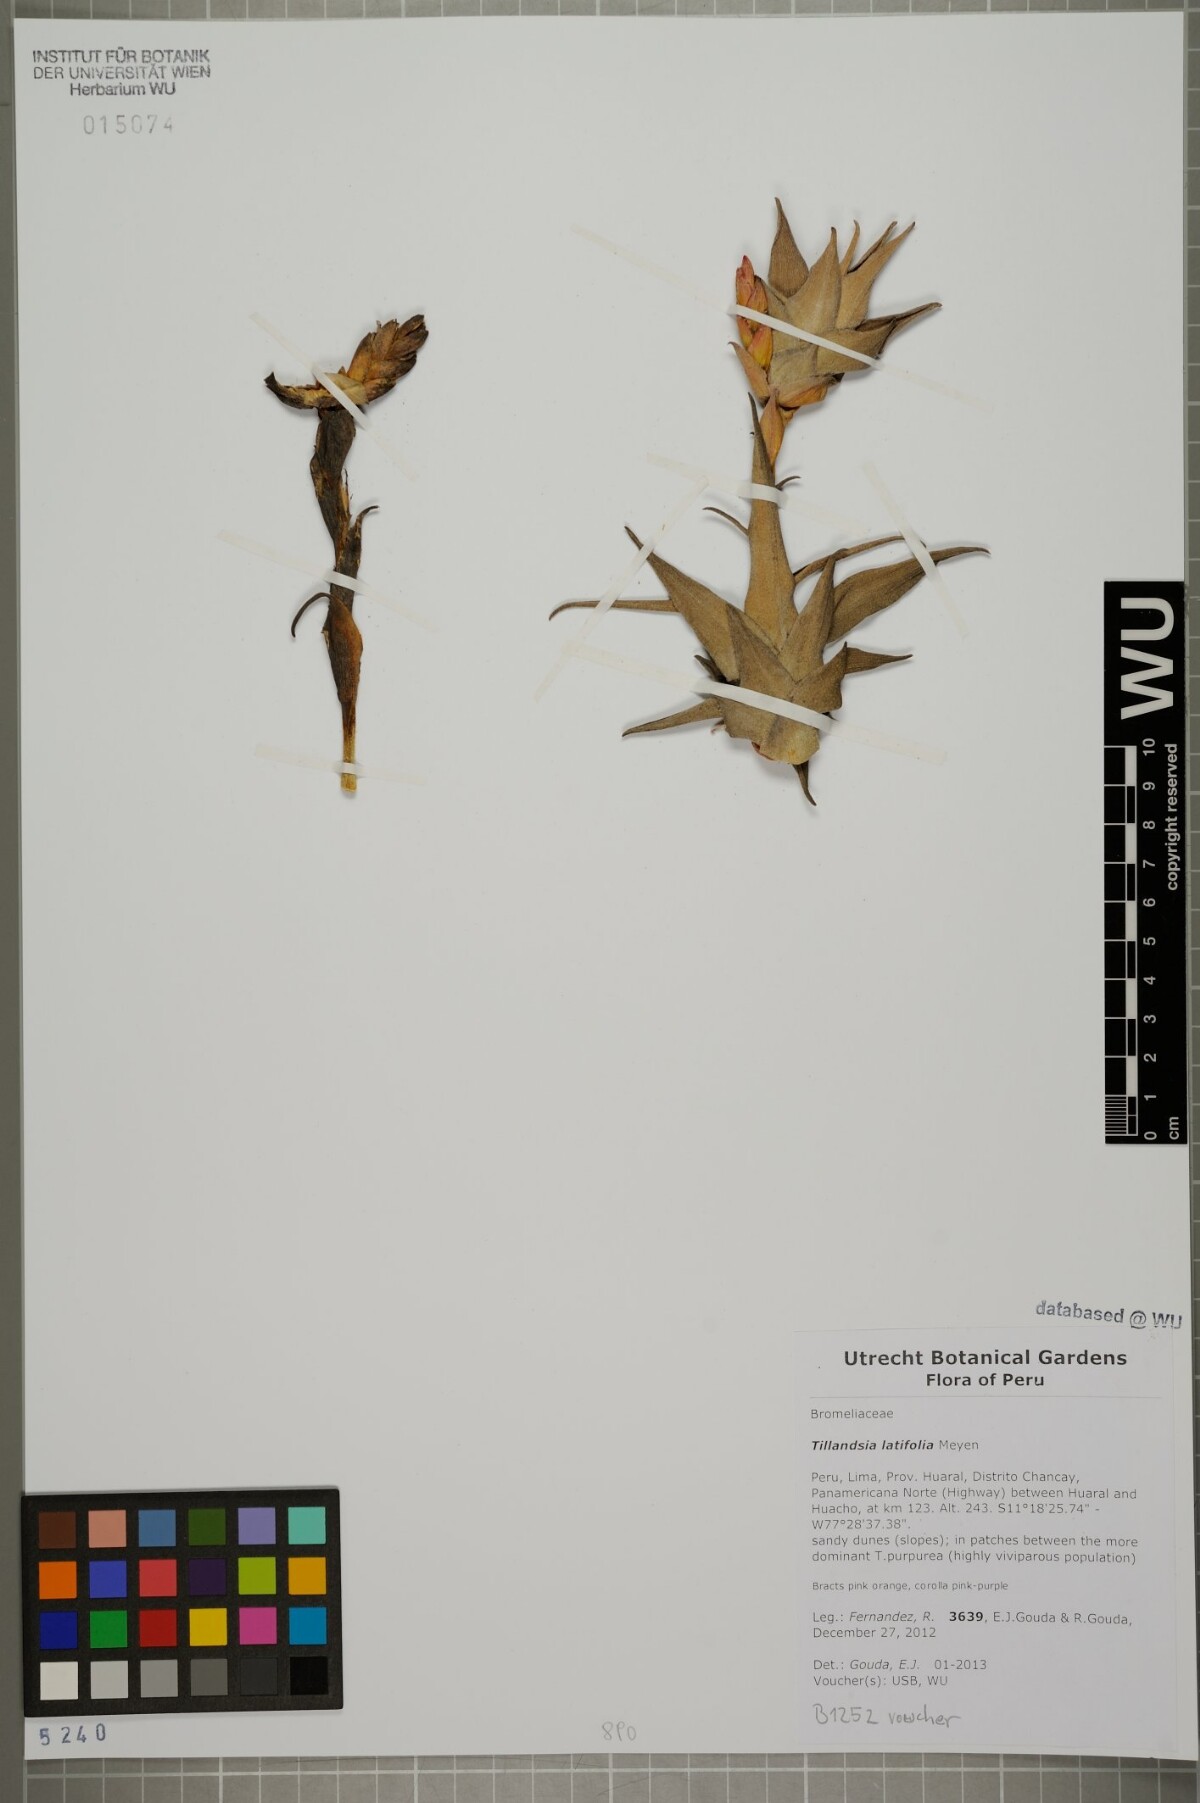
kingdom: Plantae
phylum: Tracheophyta
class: Liliopsida
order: Poales
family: Bromeliaceae
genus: Tillandsia
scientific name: Tillandsia latifolia
